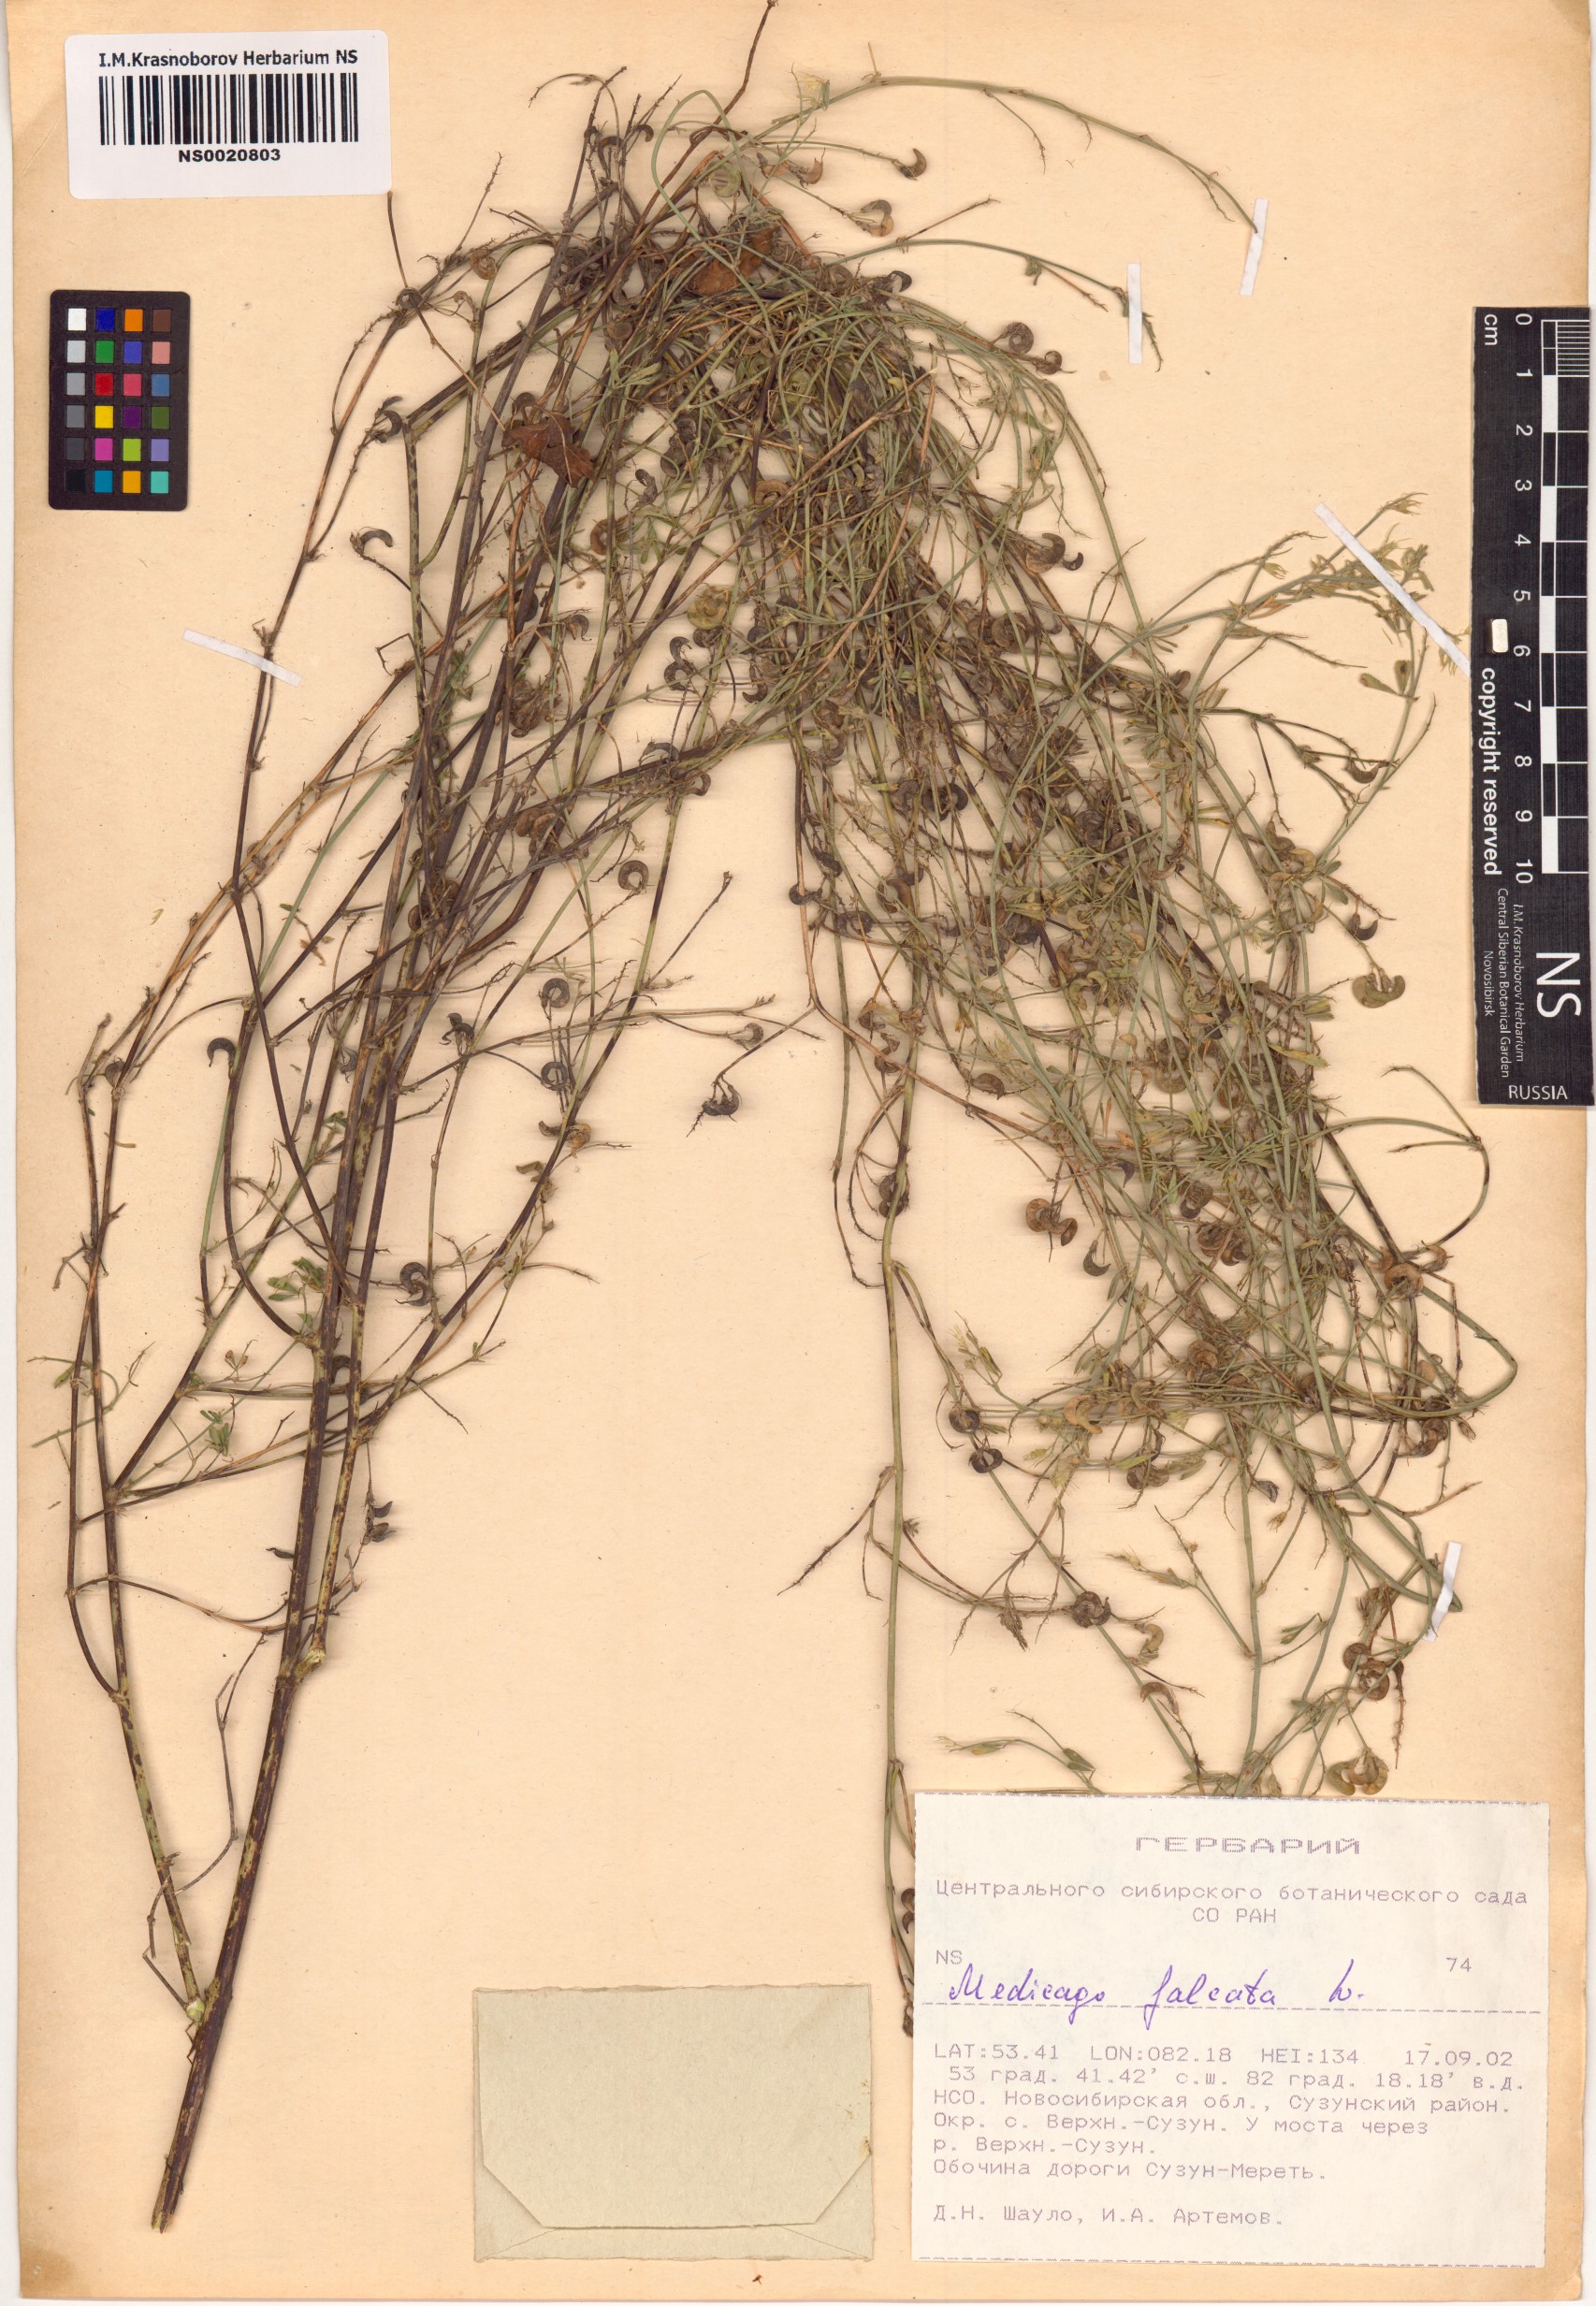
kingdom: Plantae
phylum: Tracheophyta
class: Magnoliopsida
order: Fabales
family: Fabaceae
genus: Medicago
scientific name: Medicago falcata
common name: Sickle medick
